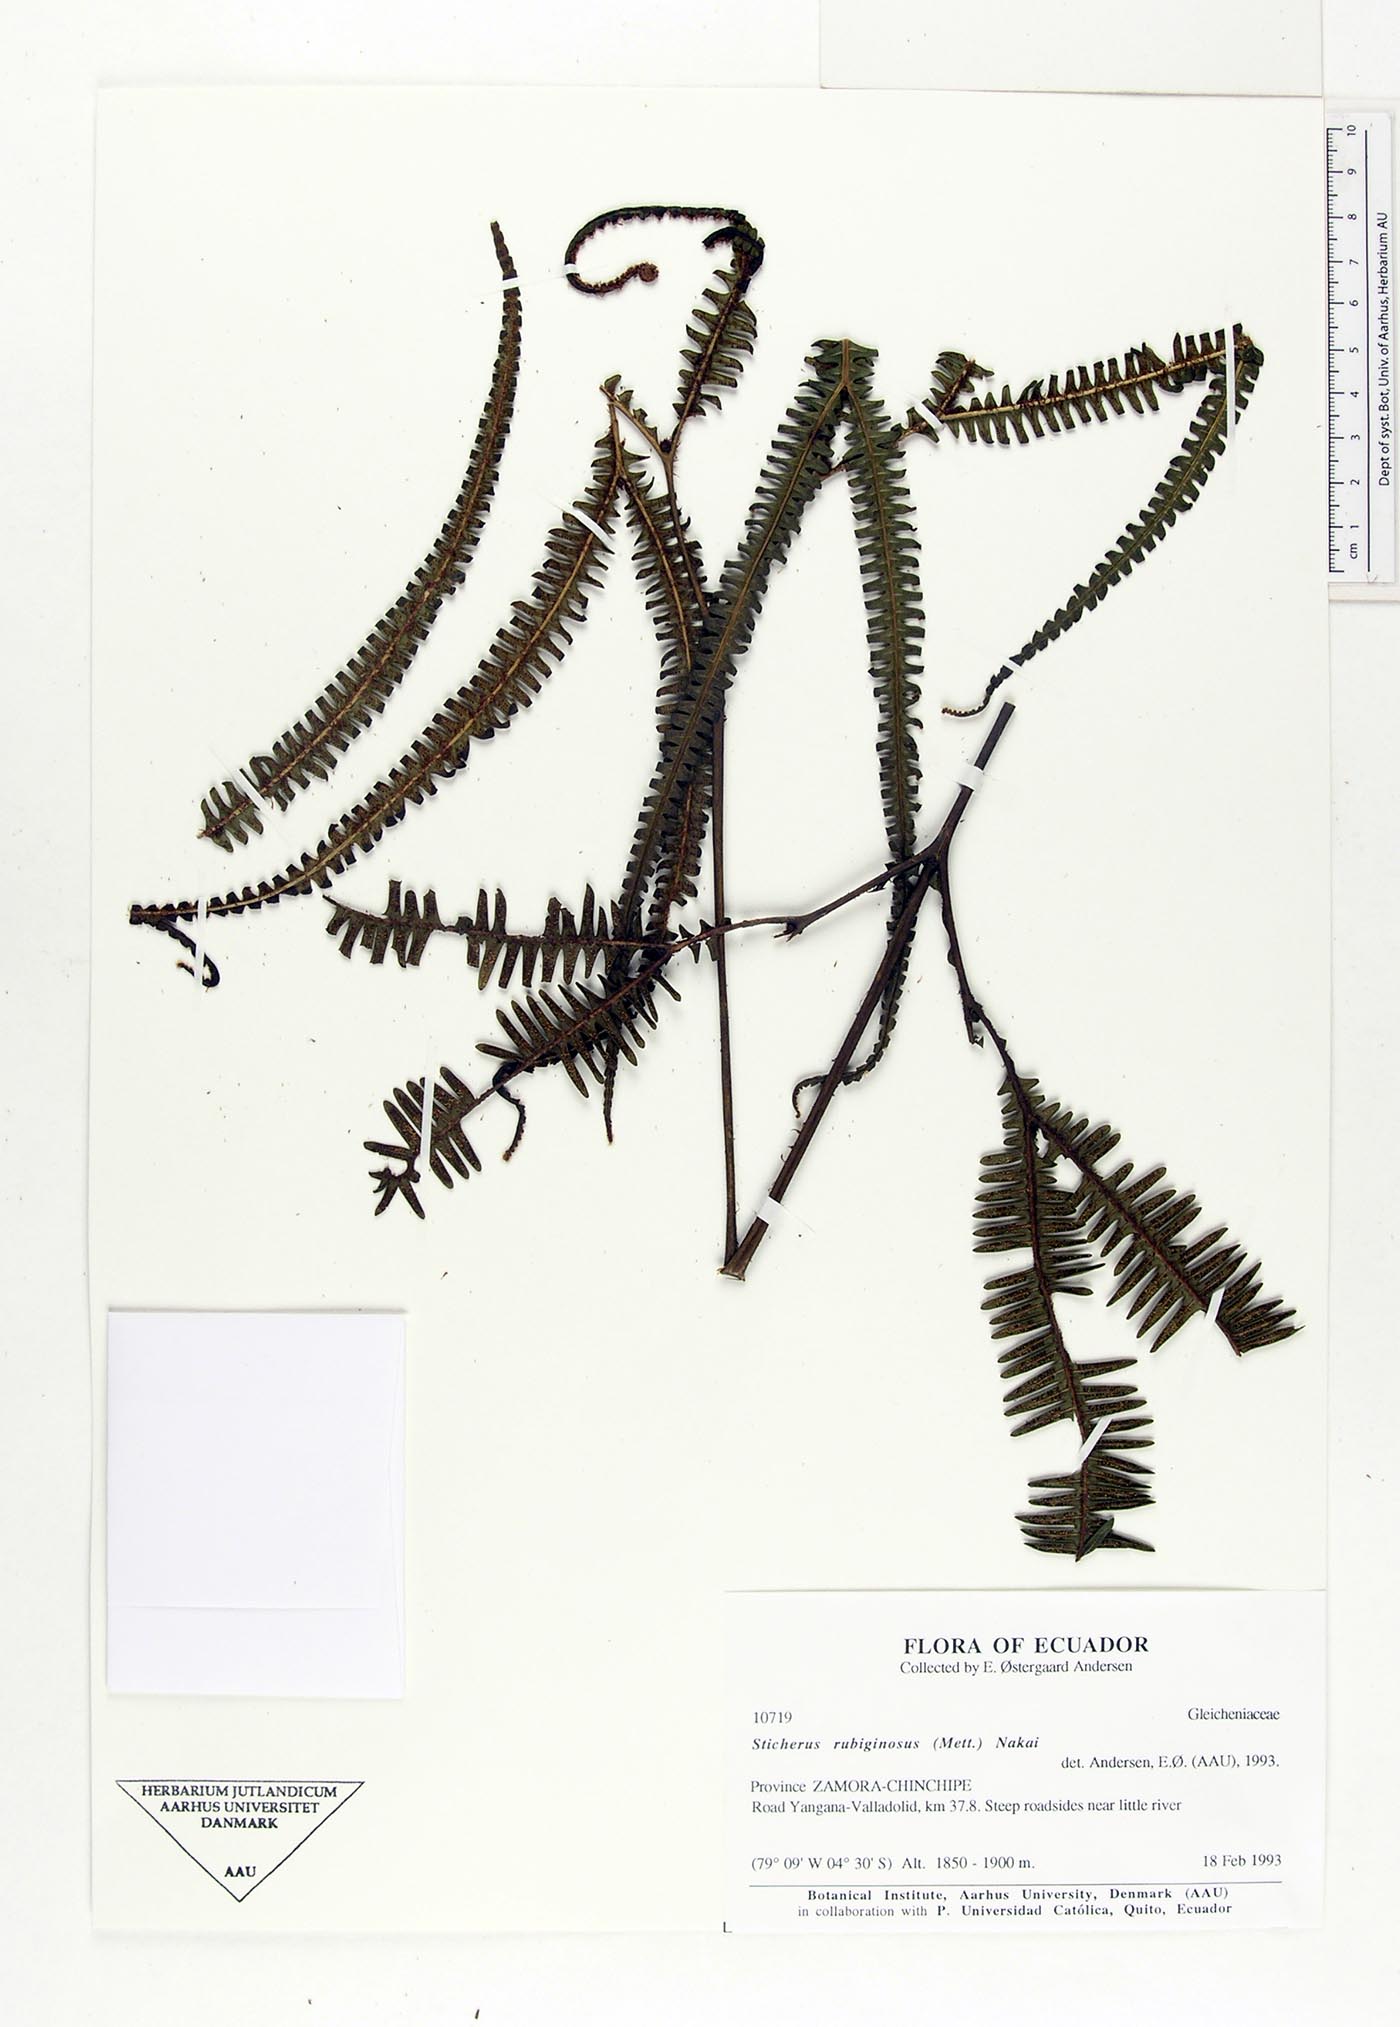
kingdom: Plantae
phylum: Tracheophyta
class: Polypodiopsida
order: Gleicheniales
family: Gleicheniaceae
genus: Sticherus
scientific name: Sticherus rubiginosus
